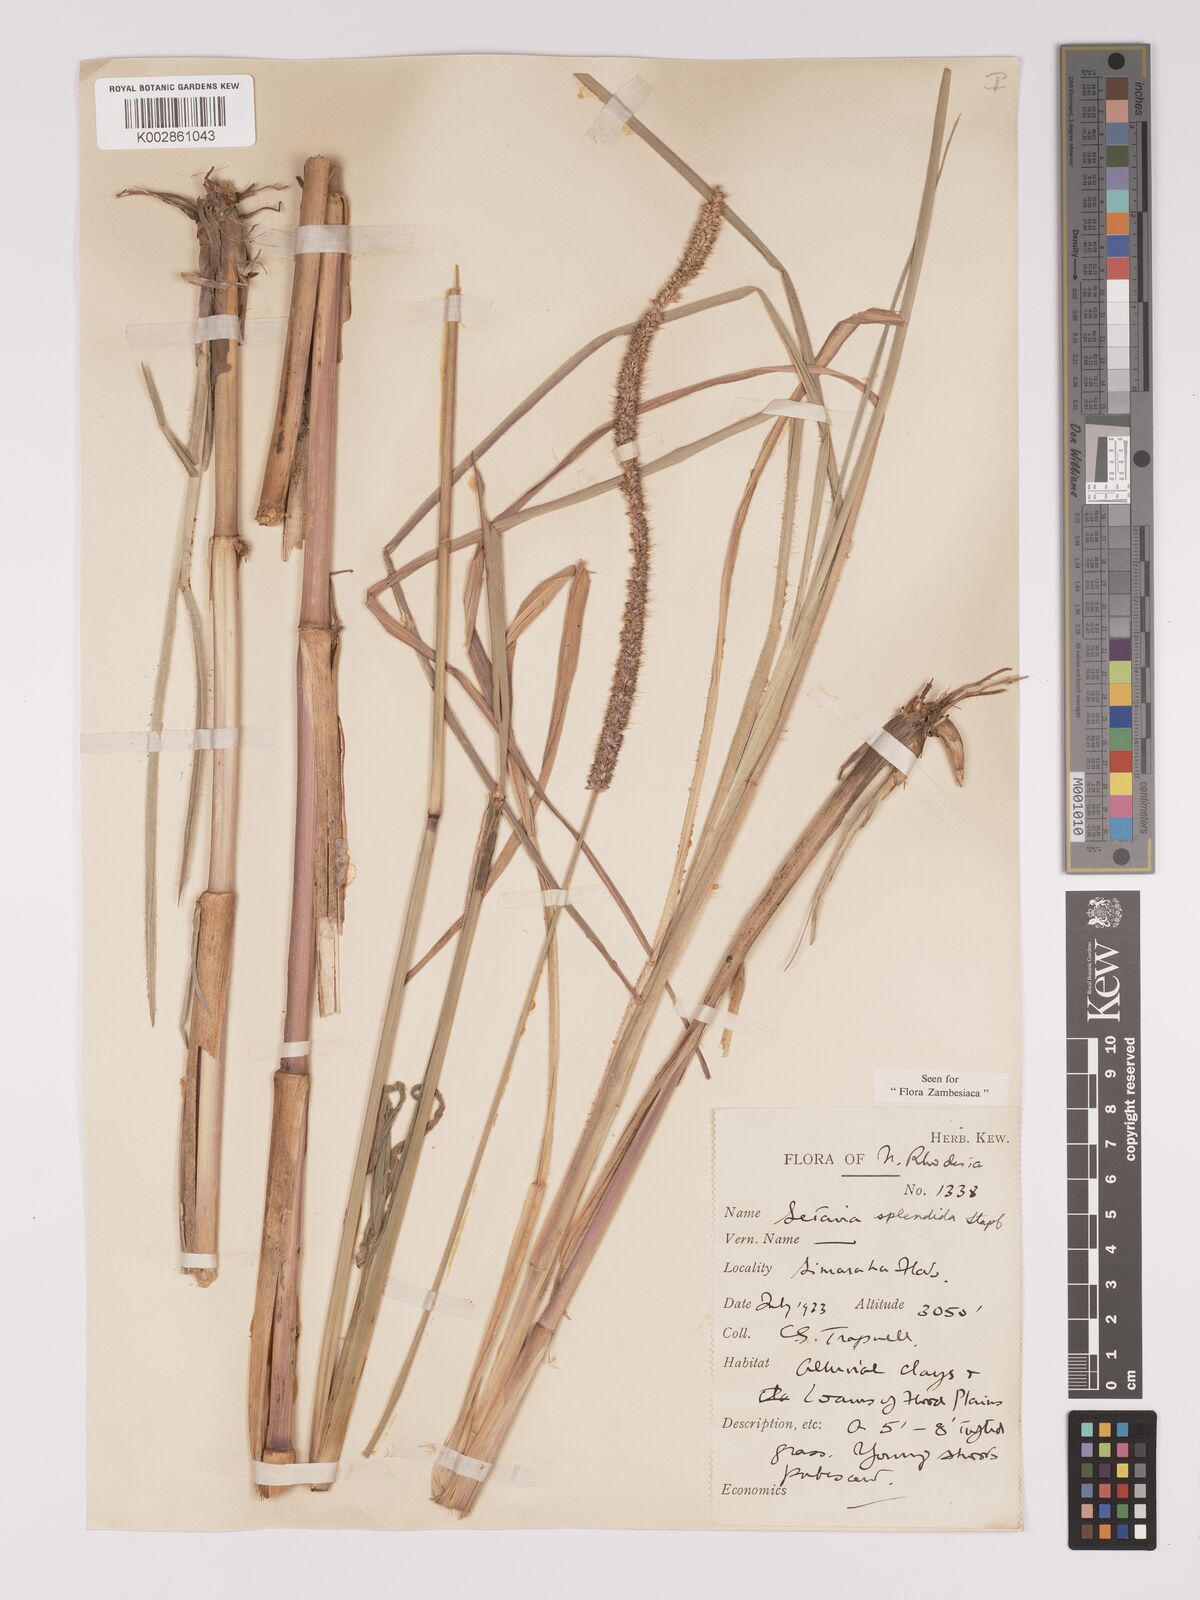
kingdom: Plantae
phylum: Tracheophyta
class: Liliopsida
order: Poales
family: Poaceae
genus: Setaria
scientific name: Setaria sphacelata
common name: African bristlegrass
